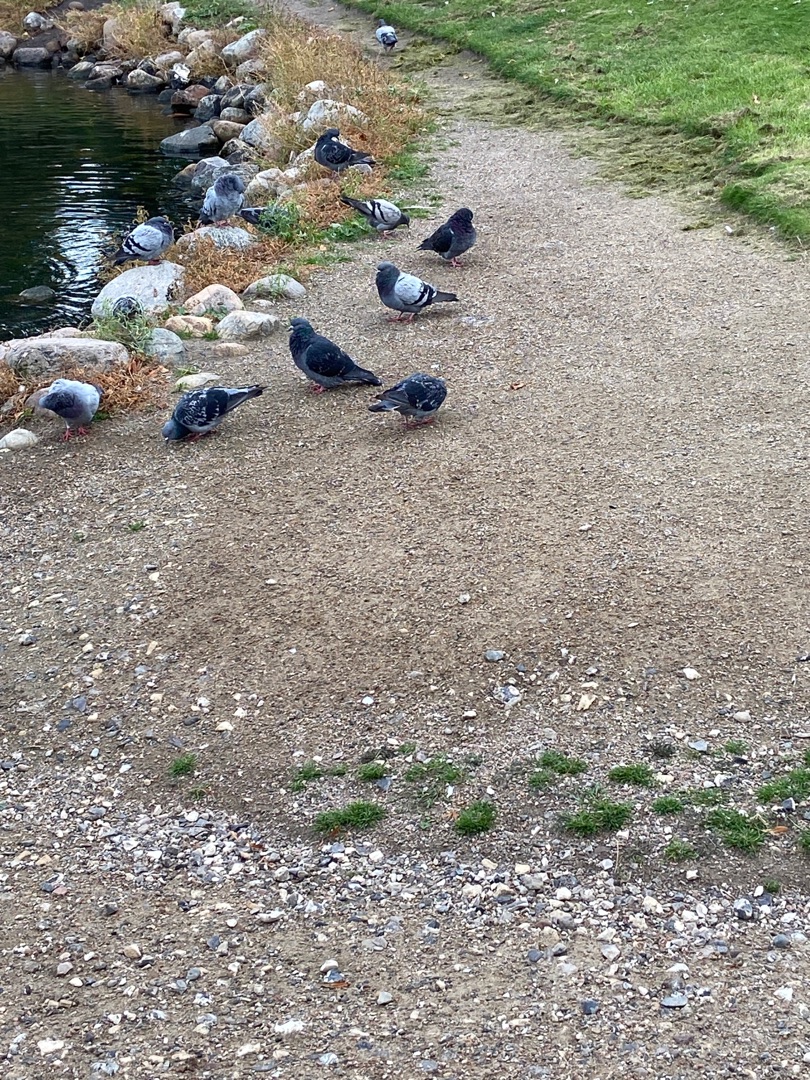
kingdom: Animalia
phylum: Chordata
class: Aves
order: Columbiformes
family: Columbidae
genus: Columba
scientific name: Columba livia
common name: Tamdue
